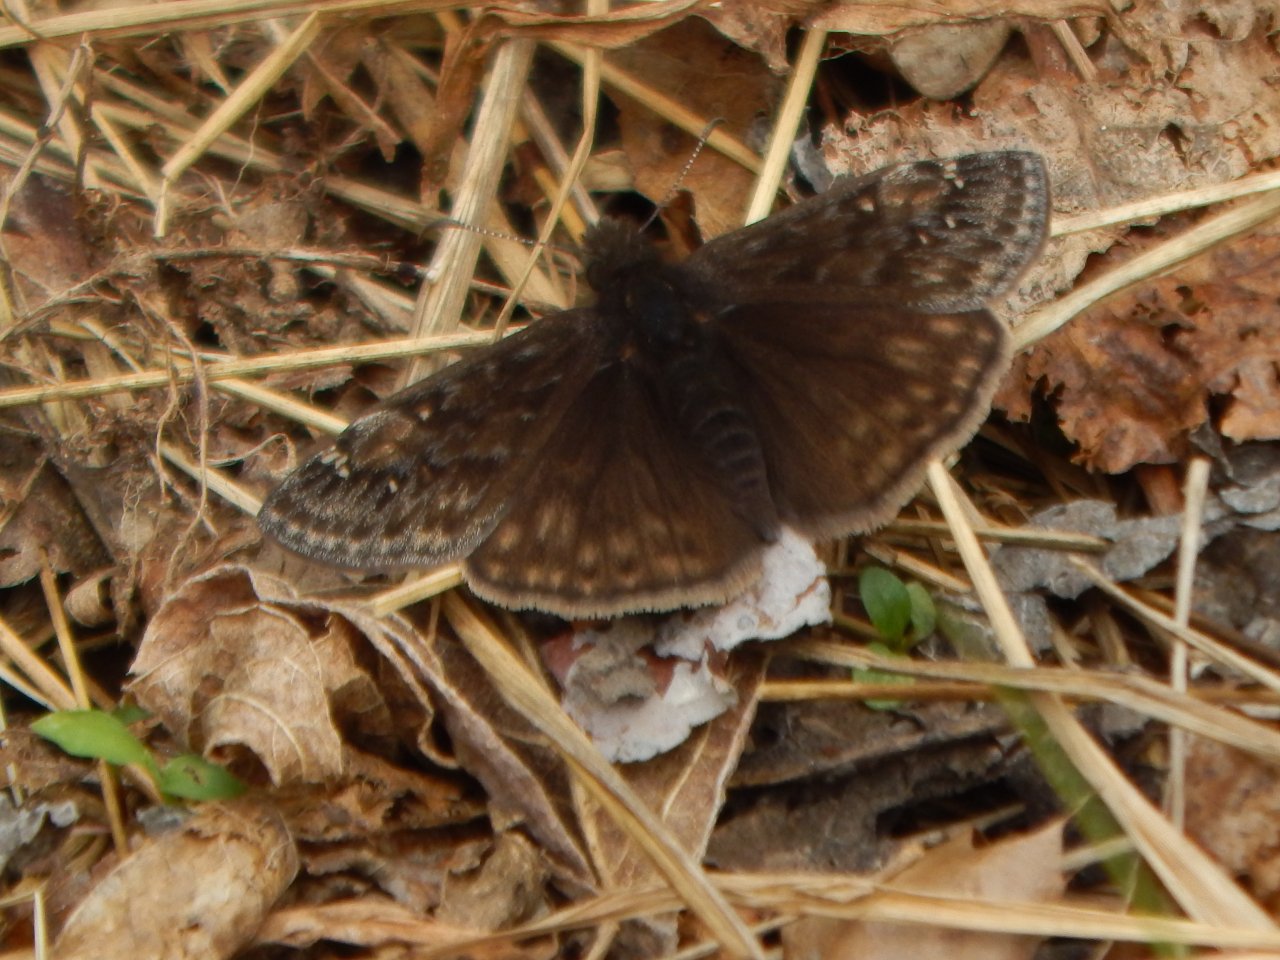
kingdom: Animalia
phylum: Arthropoda
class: Insecta
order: Lepidoptera
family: Hesperiidae
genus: Gesta
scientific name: Gesta
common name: Juvenal's Duskywing
